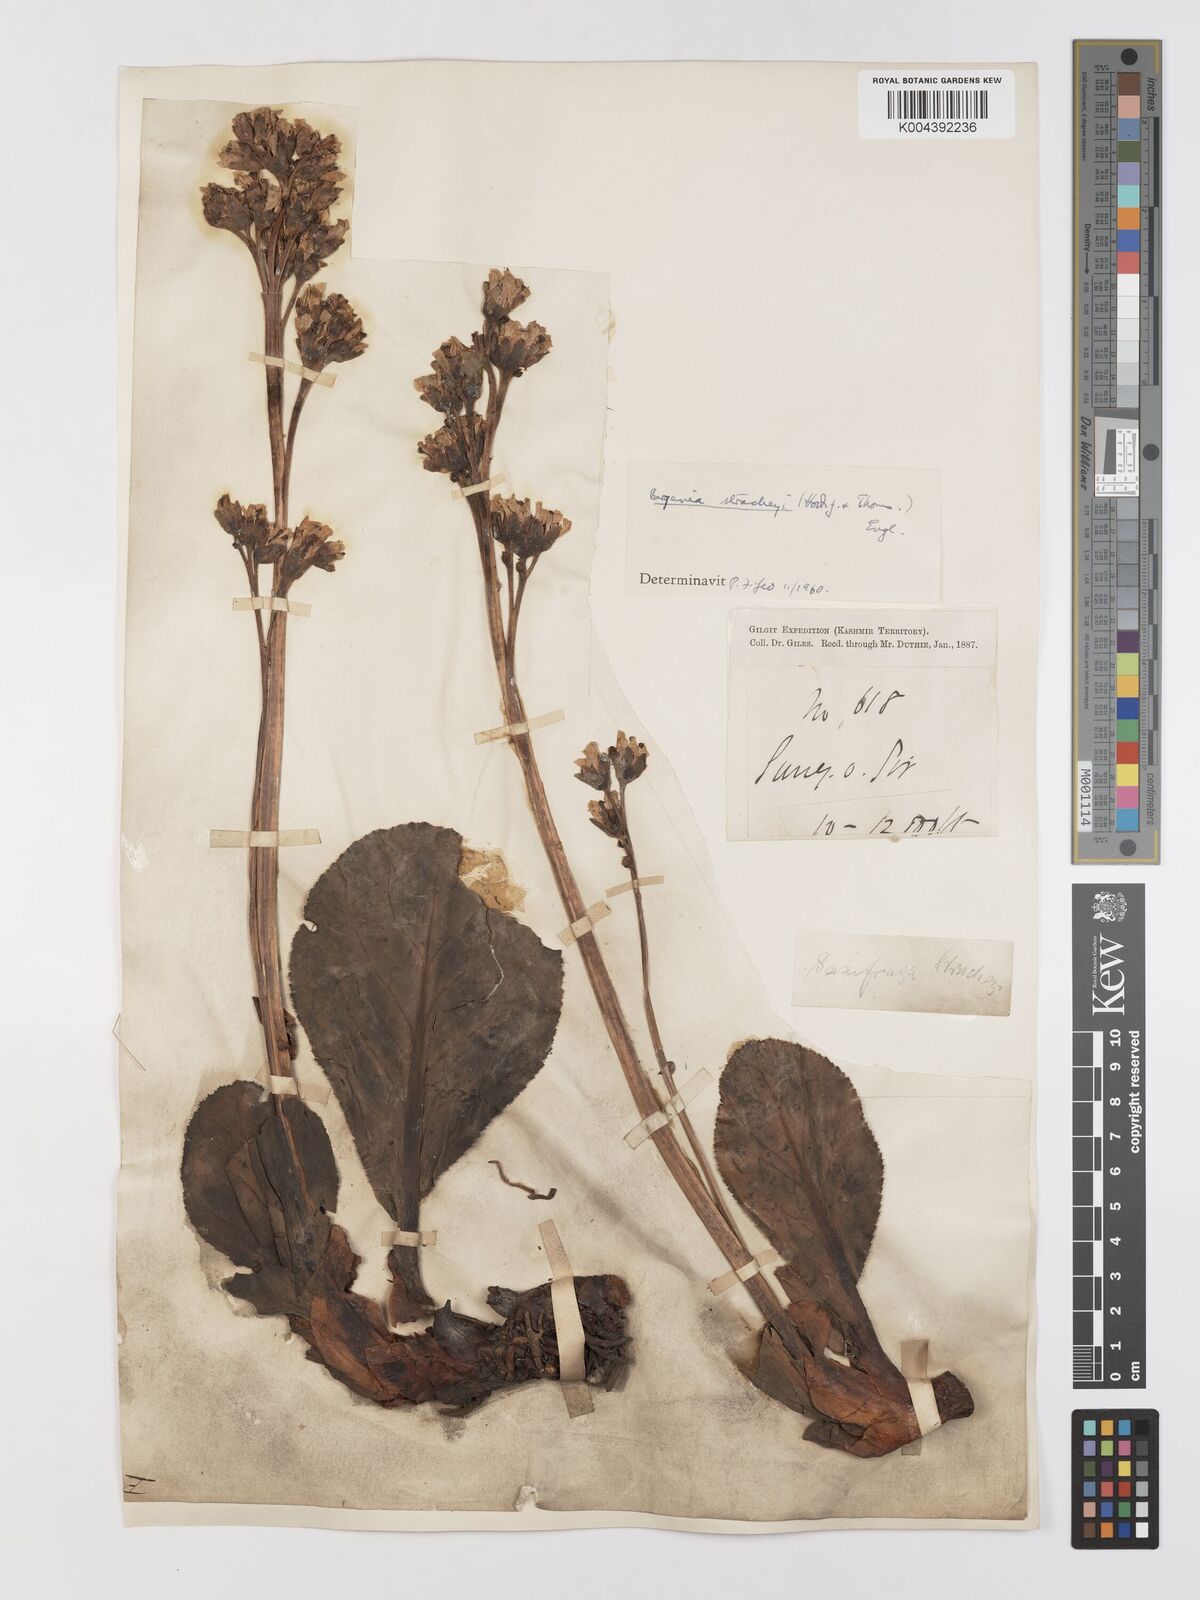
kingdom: Plantae
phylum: Tracheophyta
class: Magnoliopsida
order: Saxifragales
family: Saxifragaceae
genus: Bergenia
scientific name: Bergenia stracheyi
